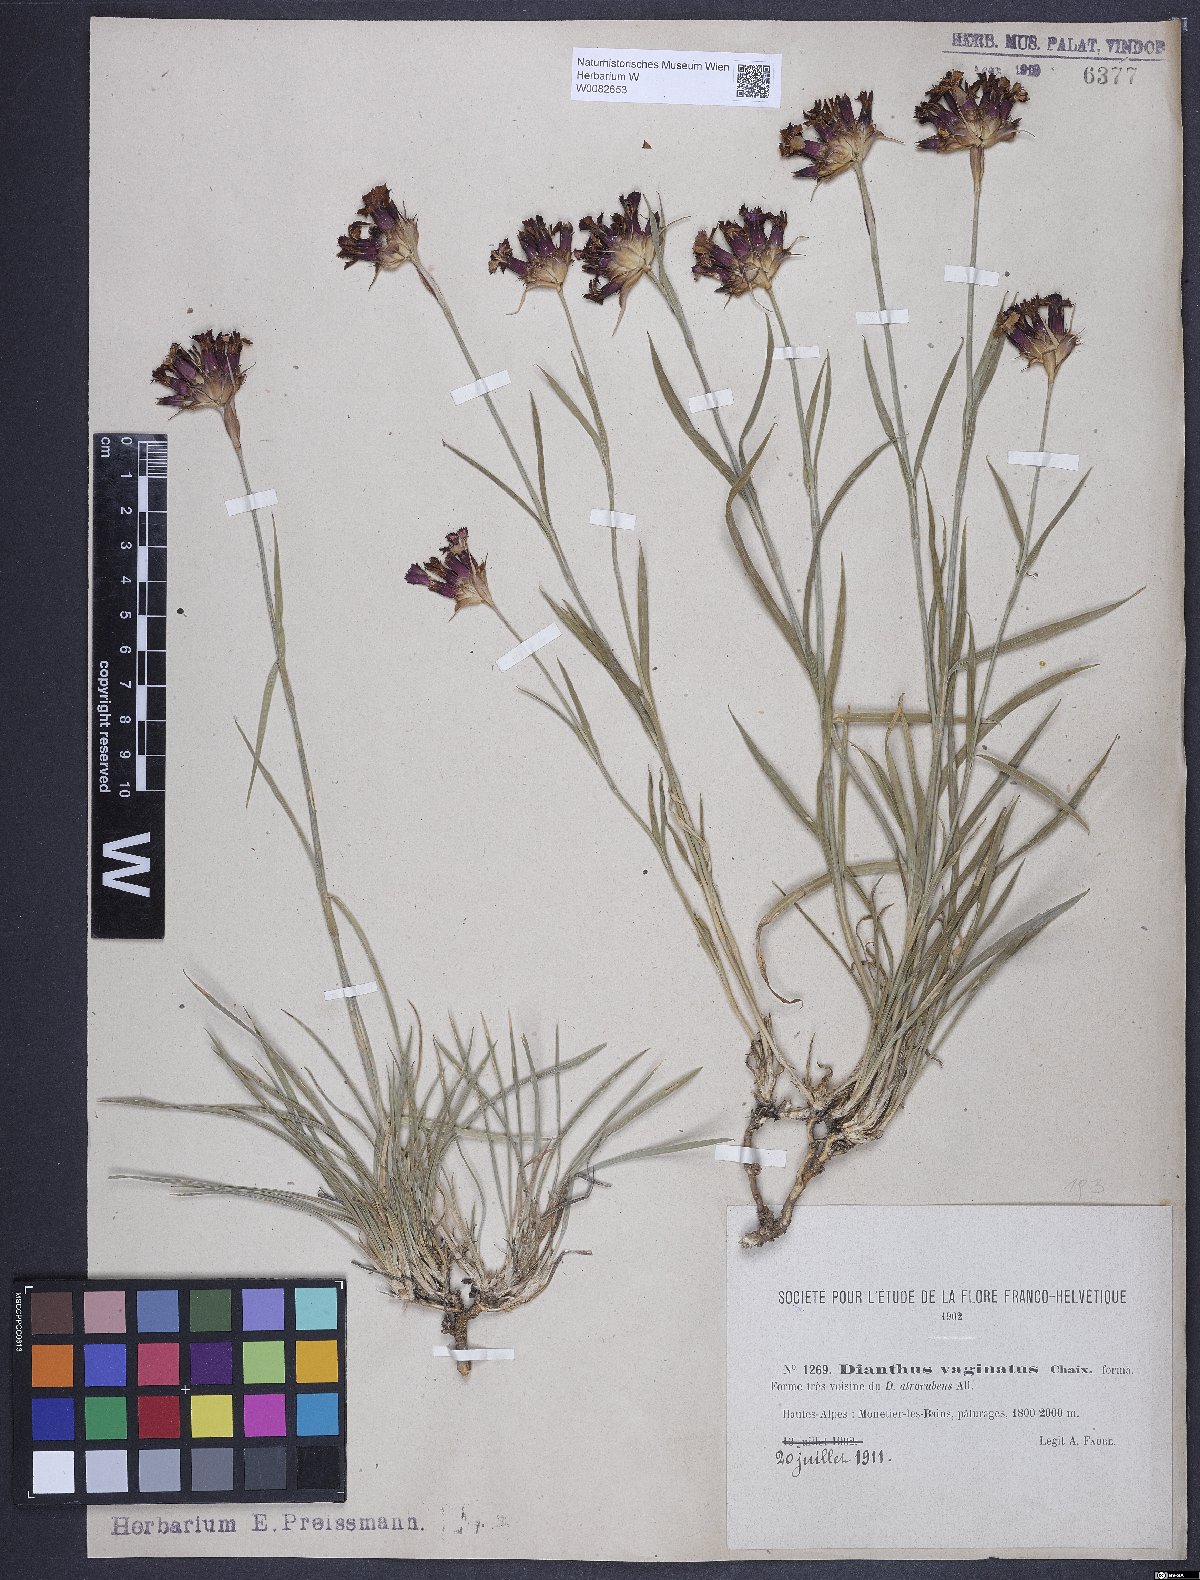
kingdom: Plantae
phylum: Tracheophyta
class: Magnoliopsida
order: Caryophyllales
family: Caryophyllaceae
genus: Dianthus
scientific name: Dianthus carthusianorum
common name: Carthusian pink
